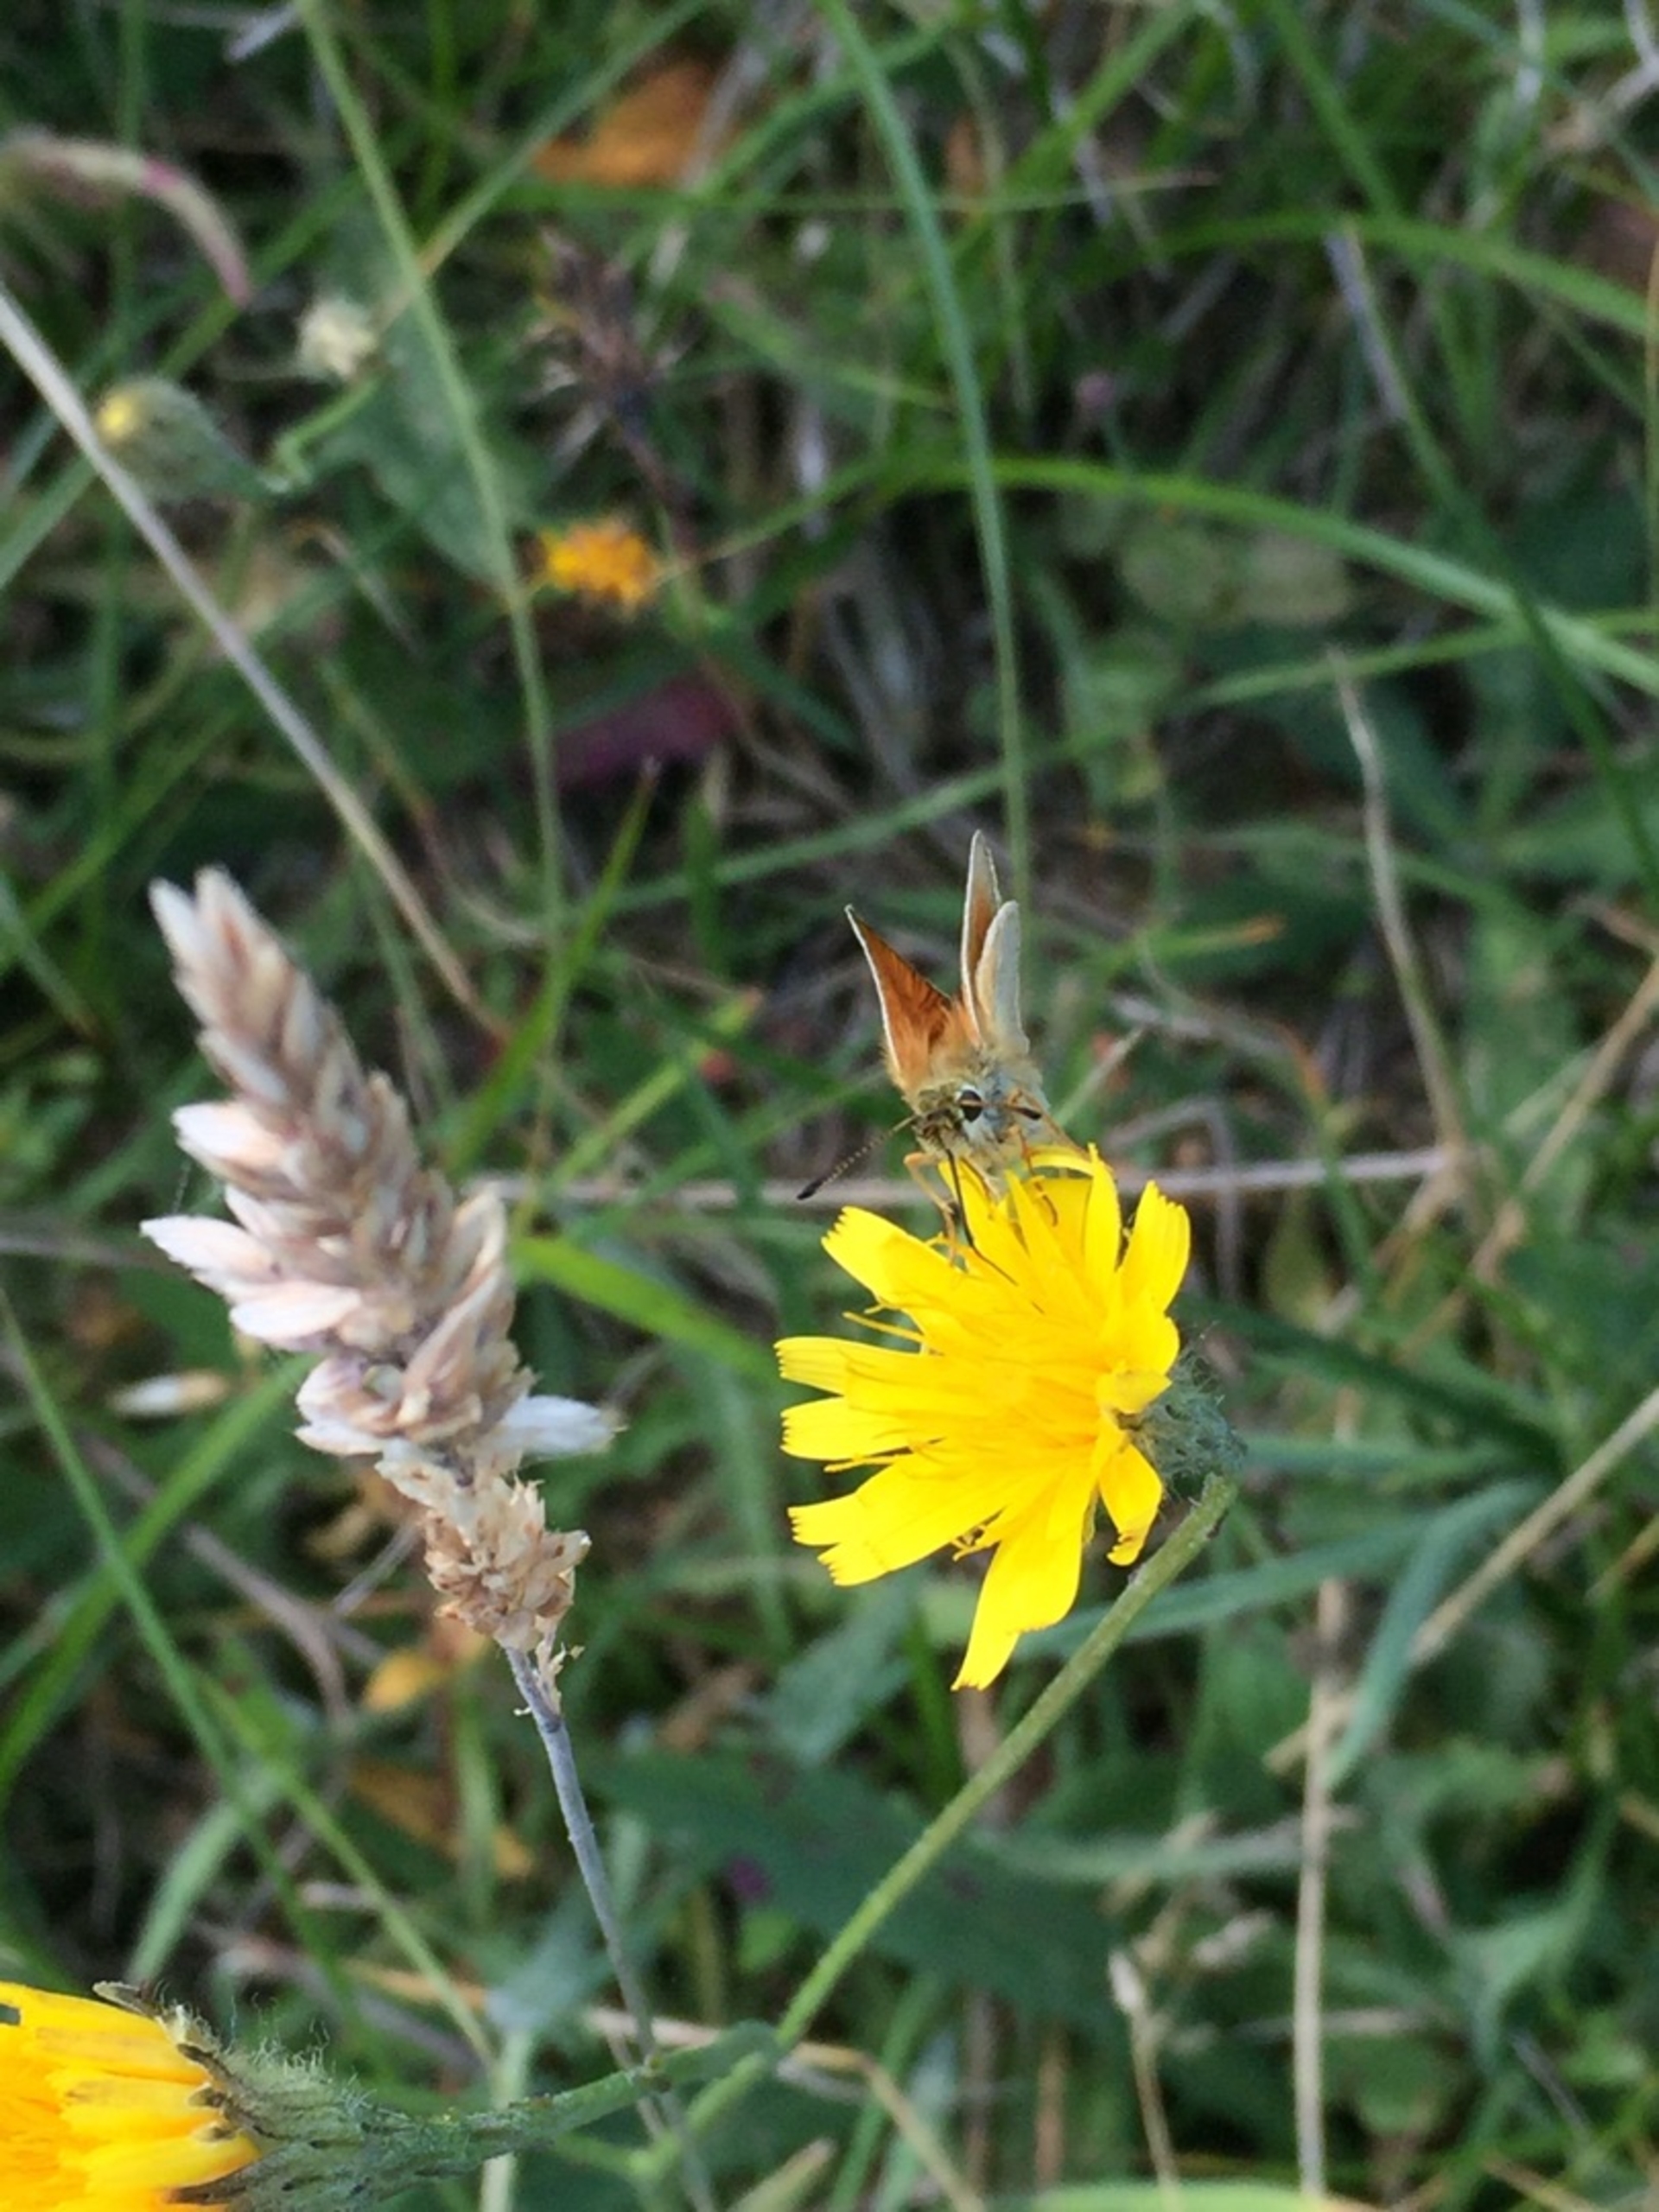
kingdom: Animalia
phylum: Arthropoda
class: Insecta
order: Lepidoptera
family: Hesperiidae
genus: Thymelicus
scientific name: Thymelicus lineola
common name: Stregbredpande
